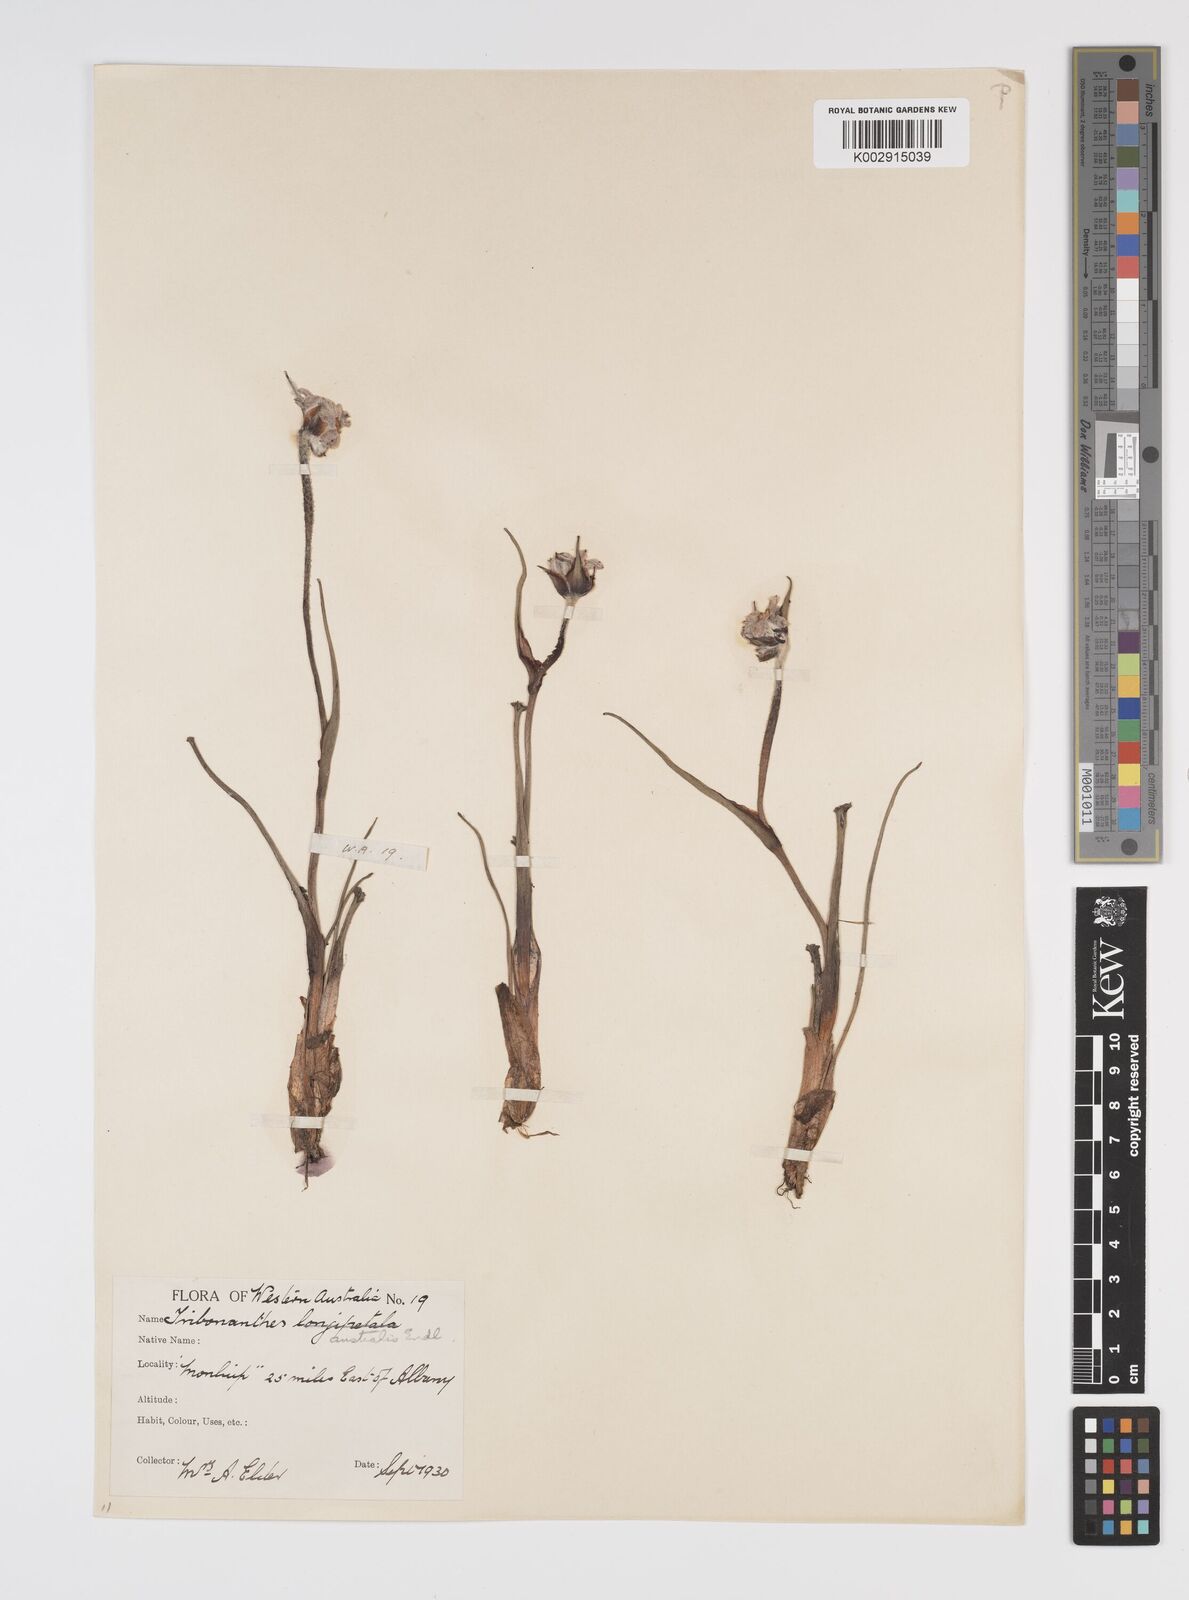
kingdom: Plantae
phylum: Tracheophyta
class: Liliopsida
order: Commelinales
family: Haemodoraceae
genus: Tribonanthes
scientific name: Tribonanthes australis
